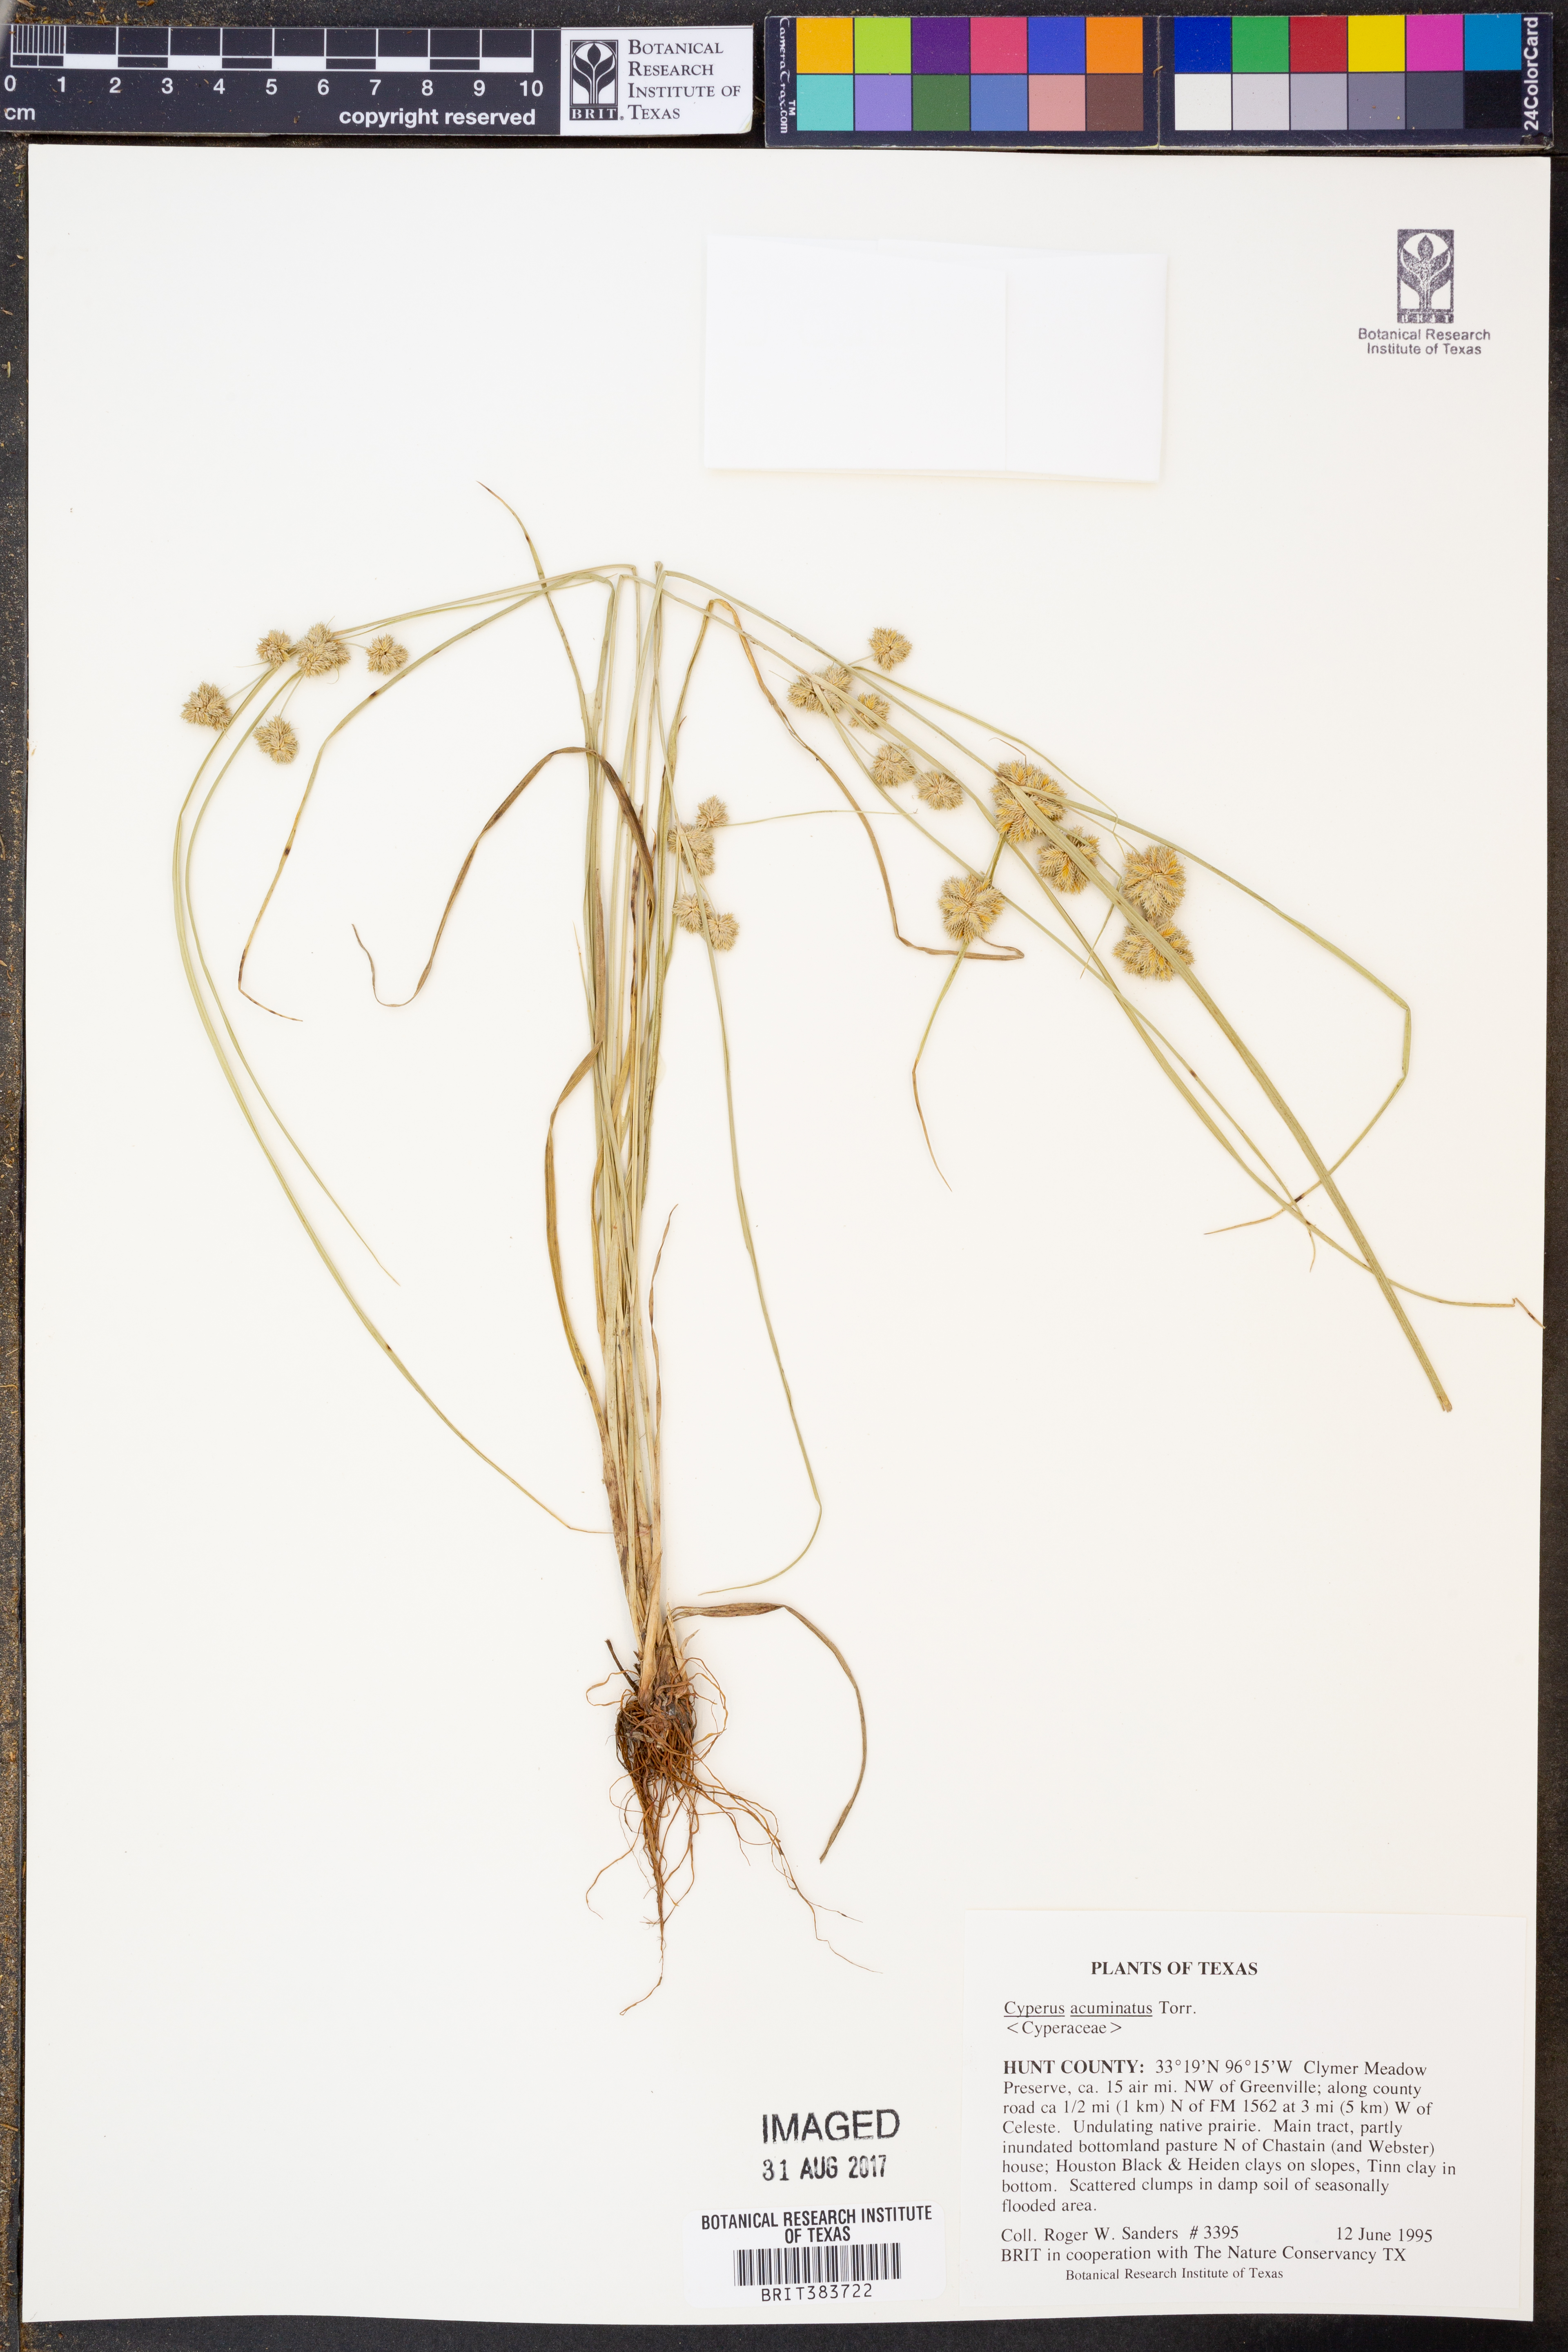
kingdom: Plantae
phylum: Tracheophyta
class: Liliopsida
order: Poales
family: Cyperaceae
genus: Cyperus
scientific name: Cyperus acuminatus
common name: Short-pointed cyperus
